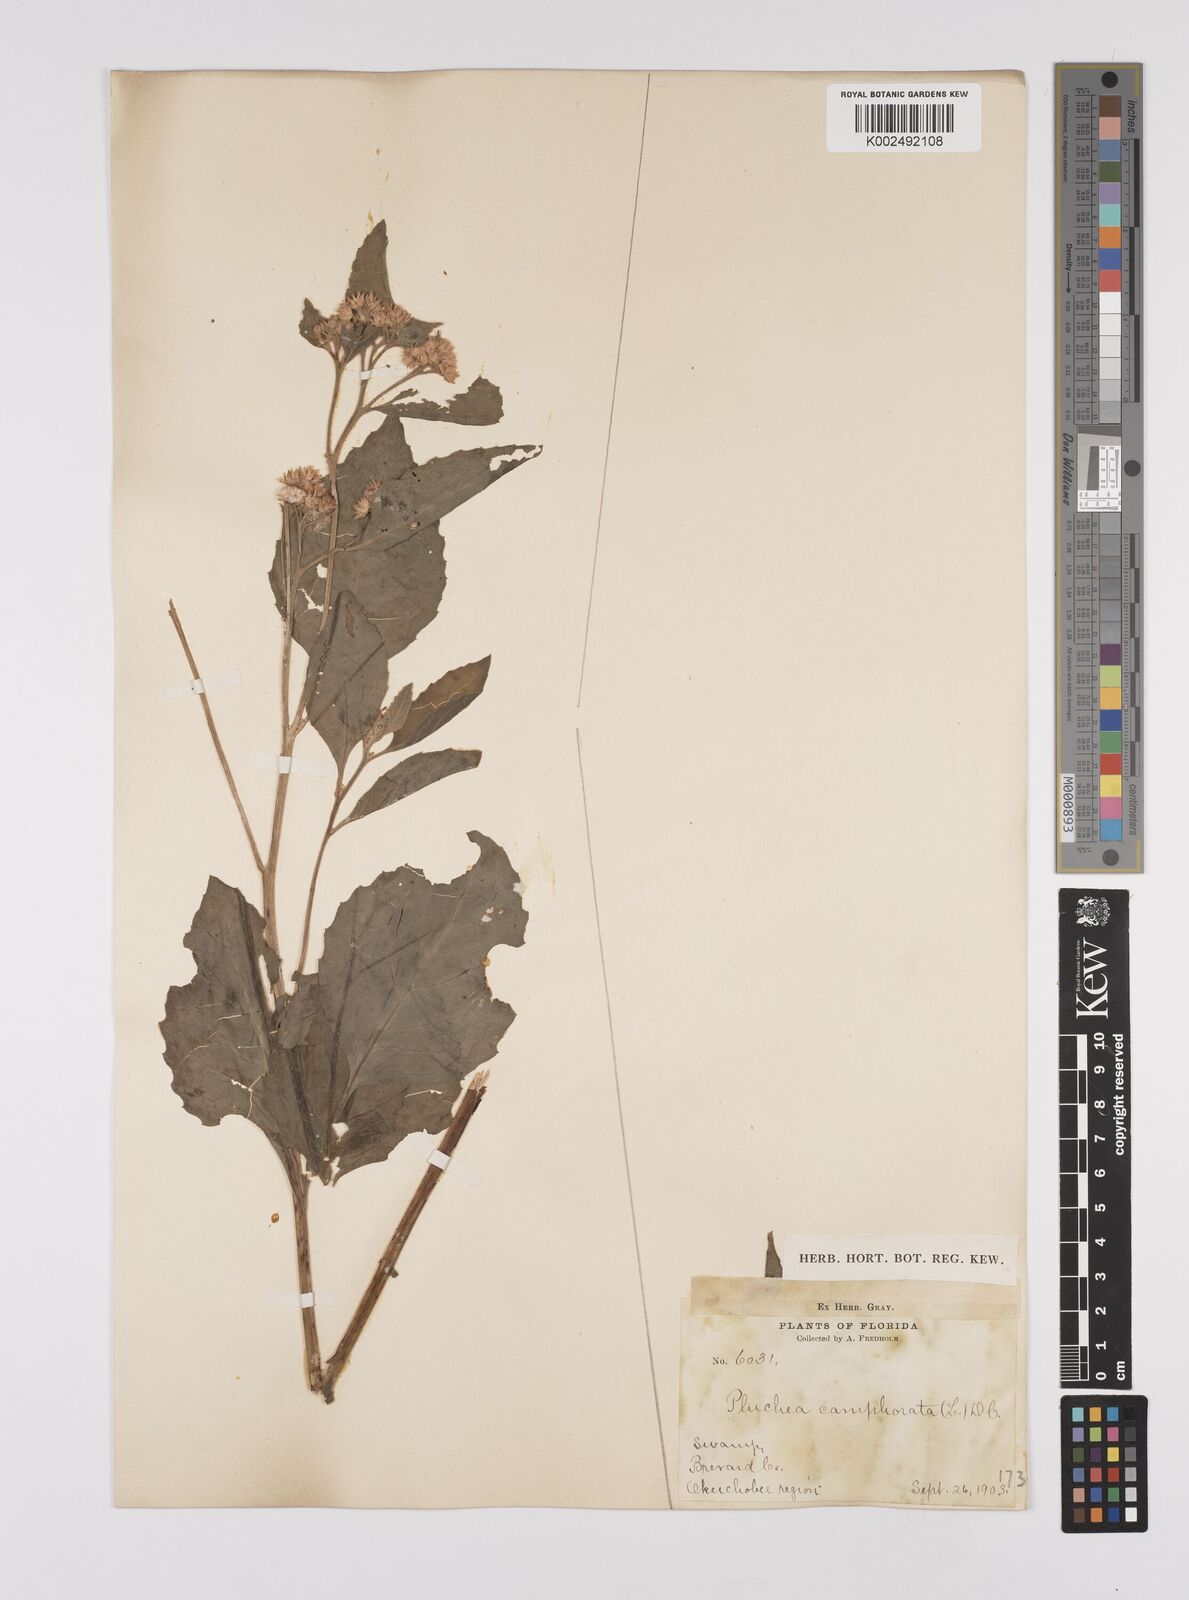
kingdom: Plantae
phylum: Tracheophyta
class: Magnoliopsida
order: Asterales
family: Asteraceae
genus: Pluchea
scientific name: Pluchea
